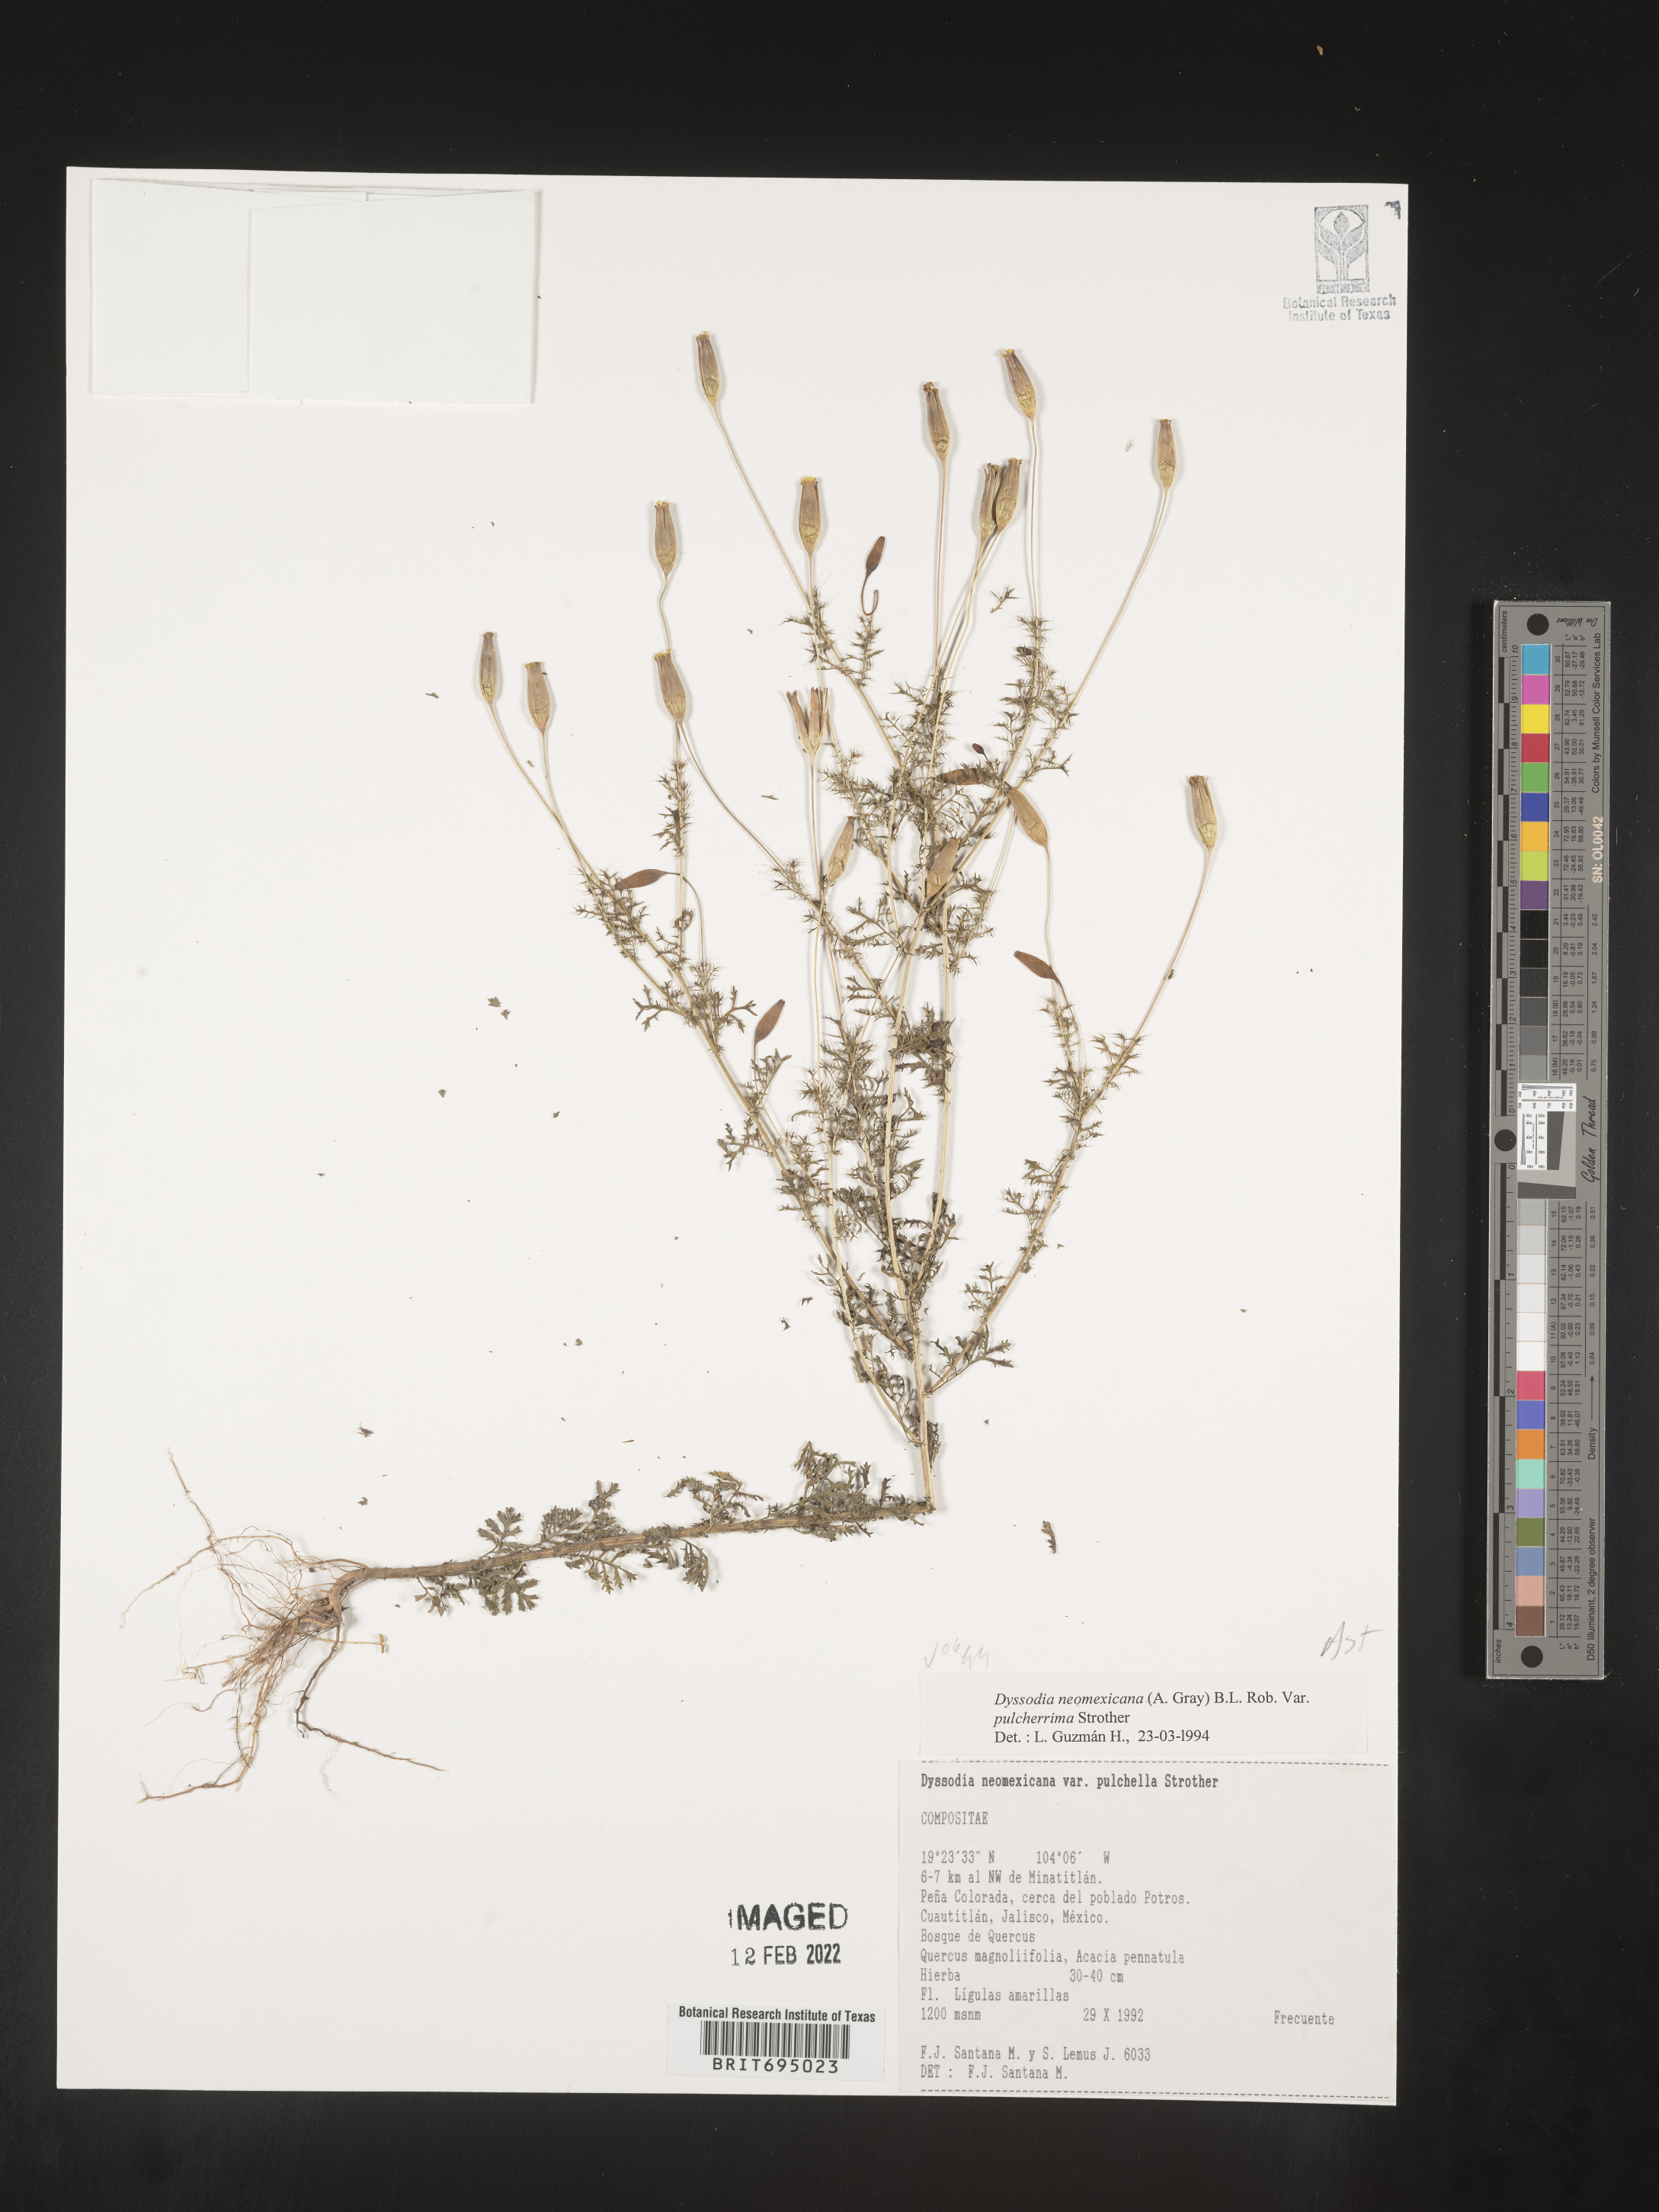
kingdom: Plantae
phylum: Tracheophyta
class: Magnoliopsida
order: Asterales
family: Asteraceae
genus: Adenophyllum
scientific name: Adenophyllum wrightii
